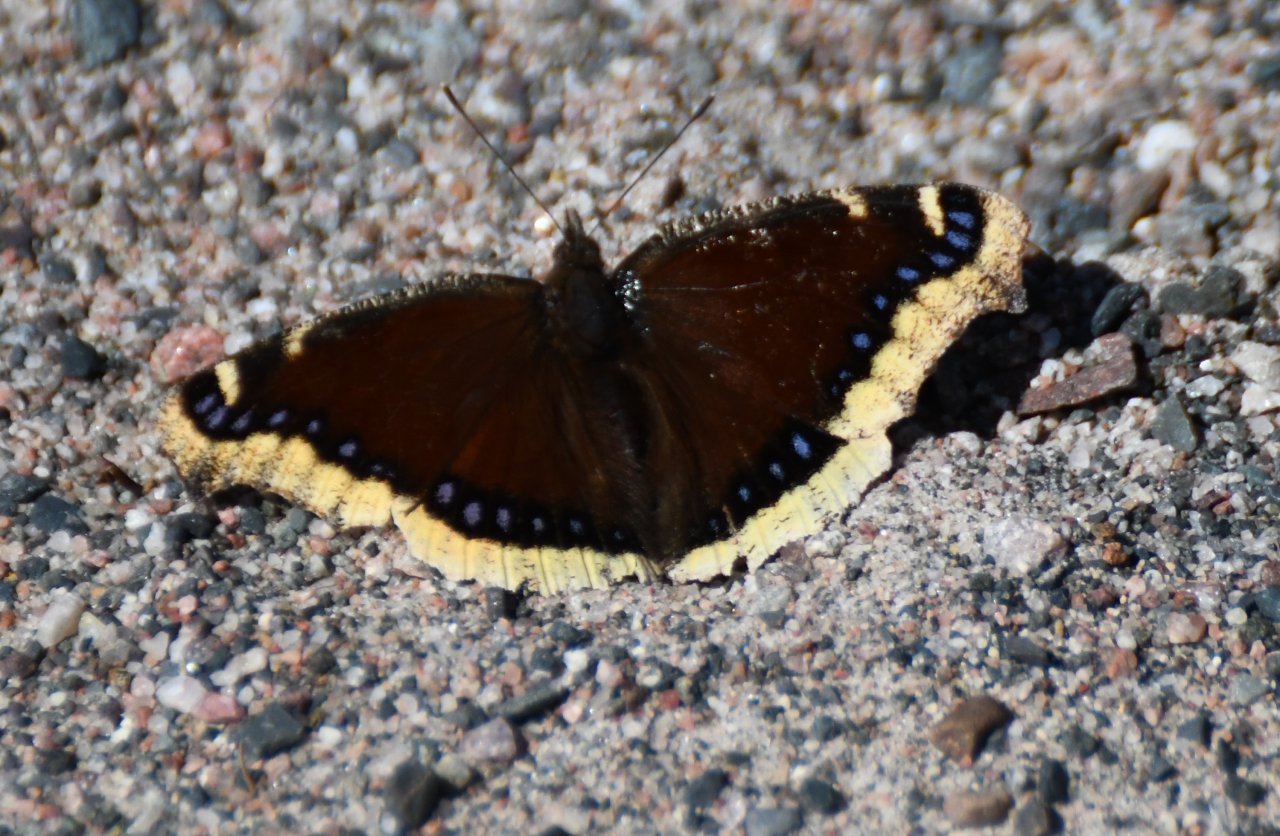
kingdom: Animalia
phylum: Arthropoda
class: Insecta
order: Lepidoptera
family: Nymphalidae
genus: Nymphalis
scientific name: Nymphalis antiopa
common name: Mourning Cloak
